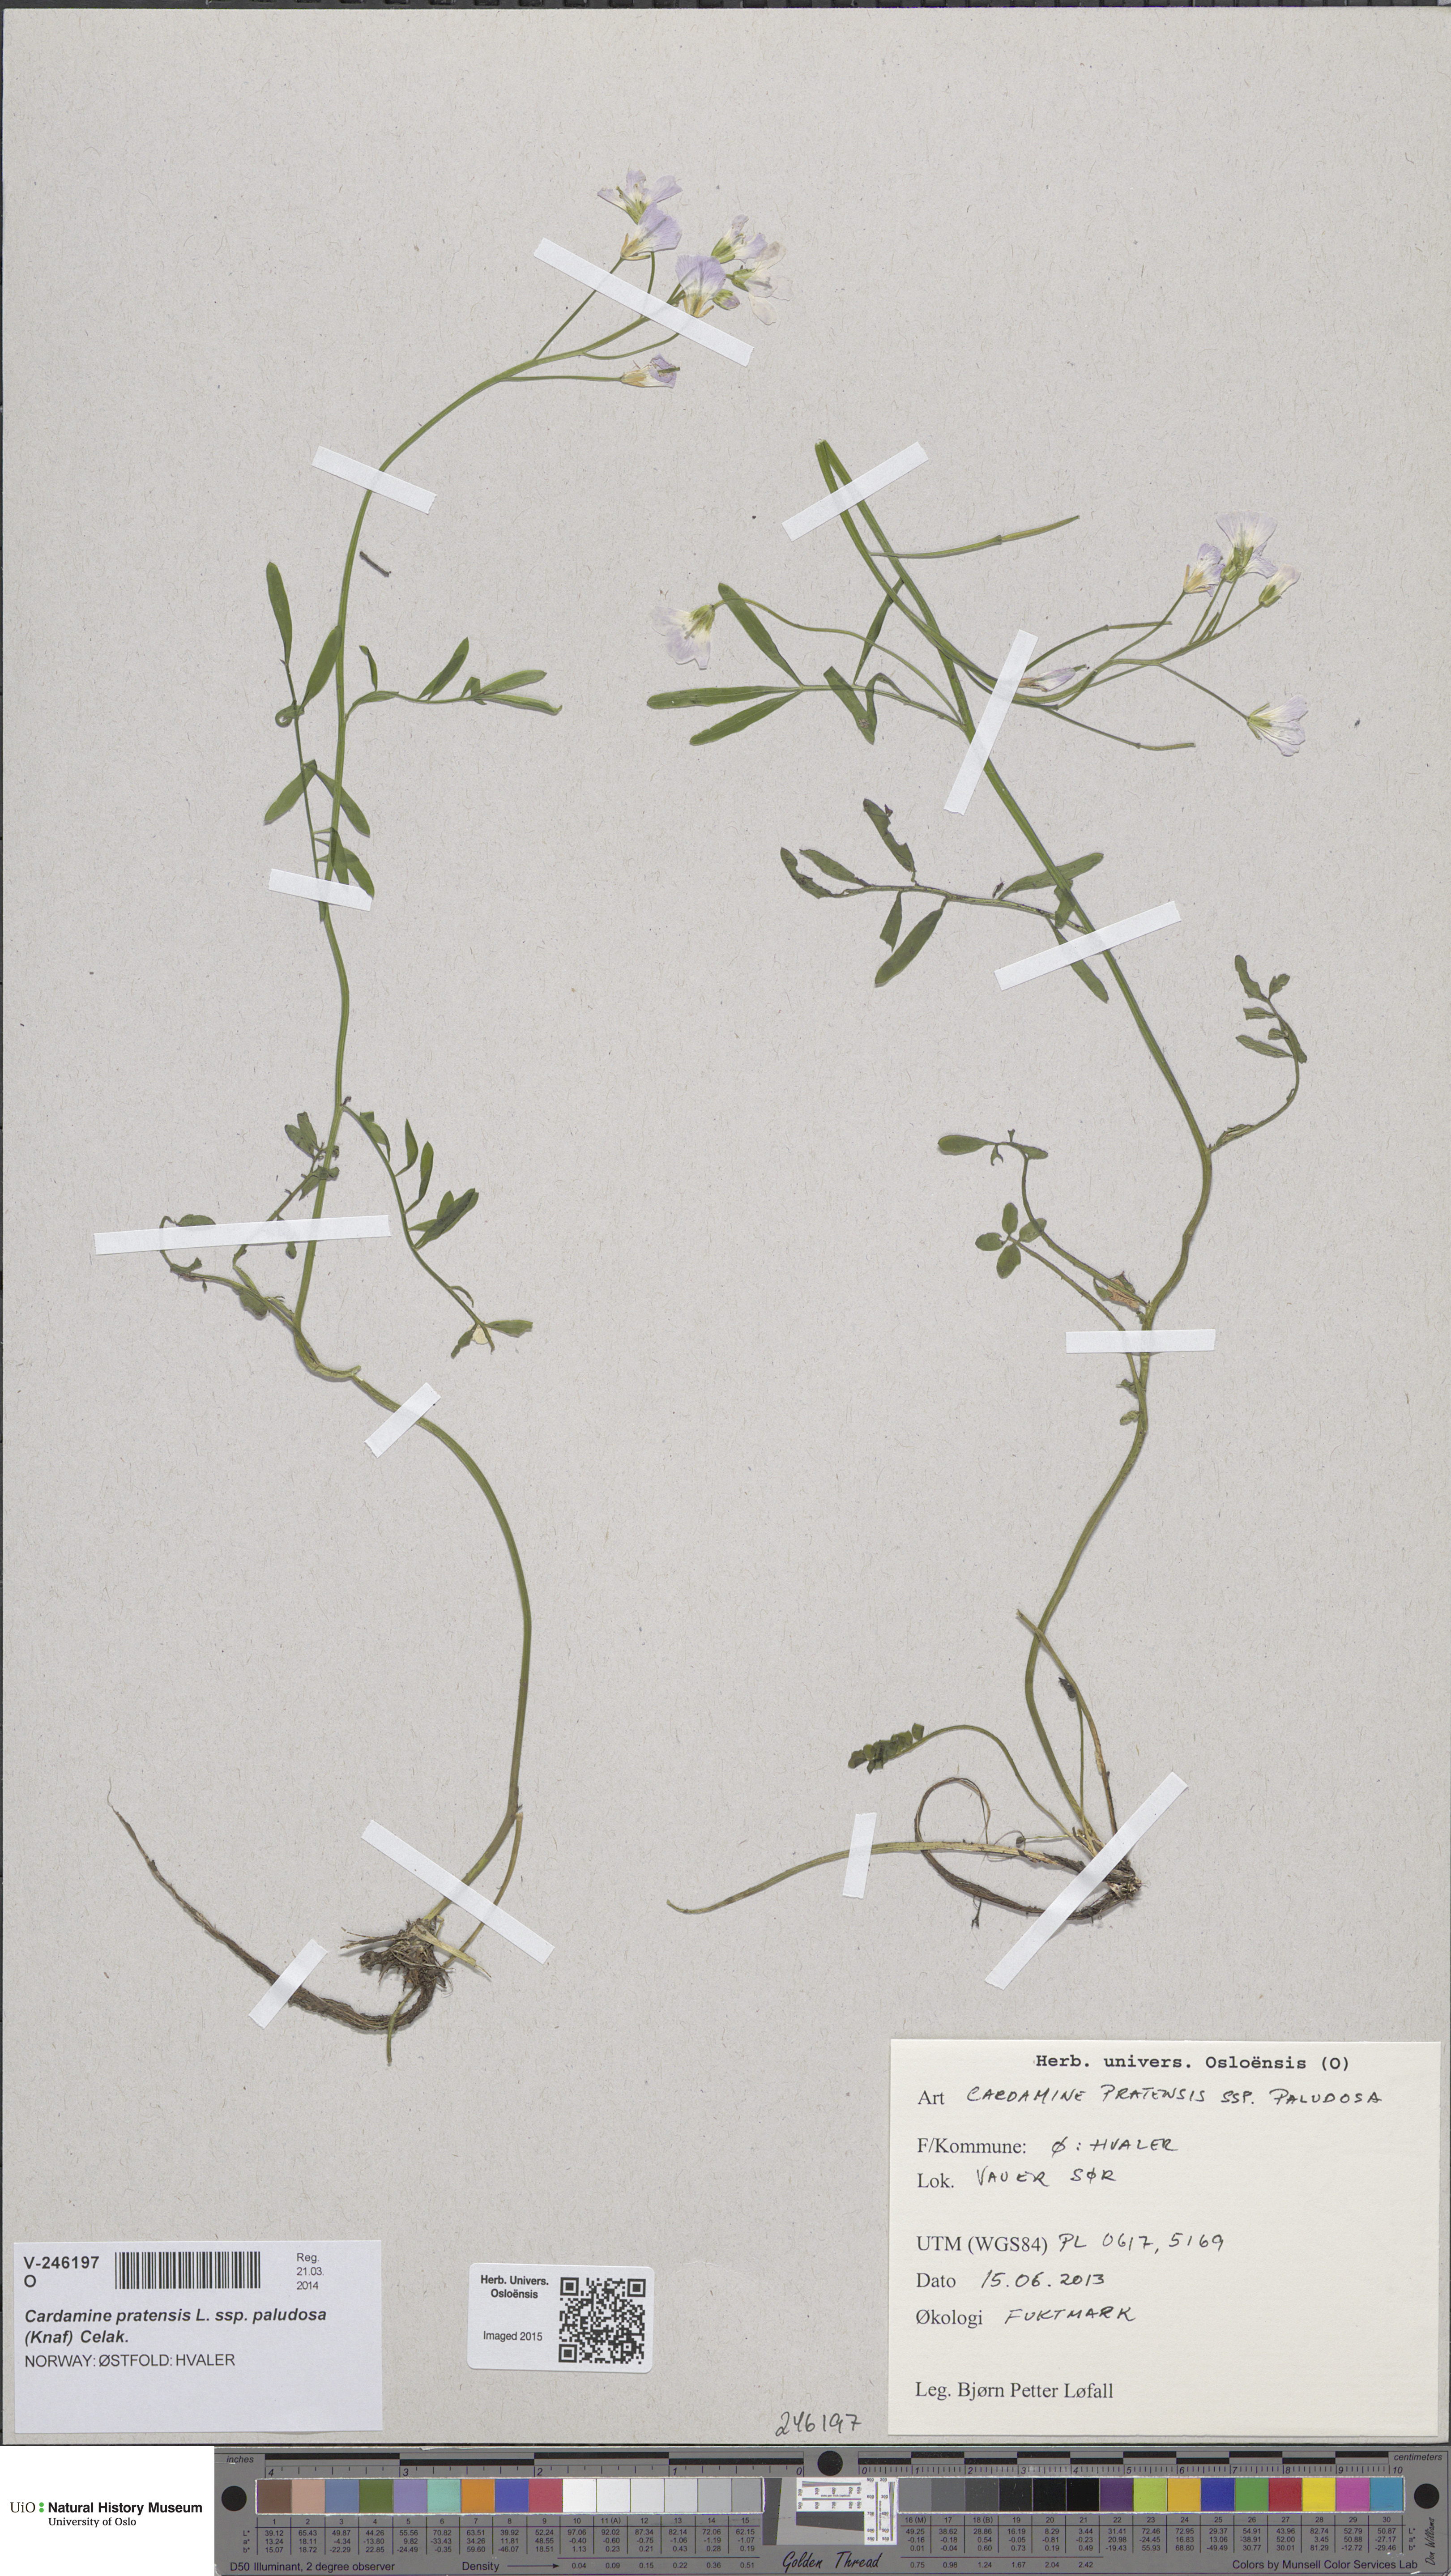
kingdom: Plantae
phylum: Tracheophyta
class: Magnoliopsida
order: Brassicales
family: Brassicaceae
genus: Cardamine
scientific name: Cardamine dentata
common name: Toothed bittercress
